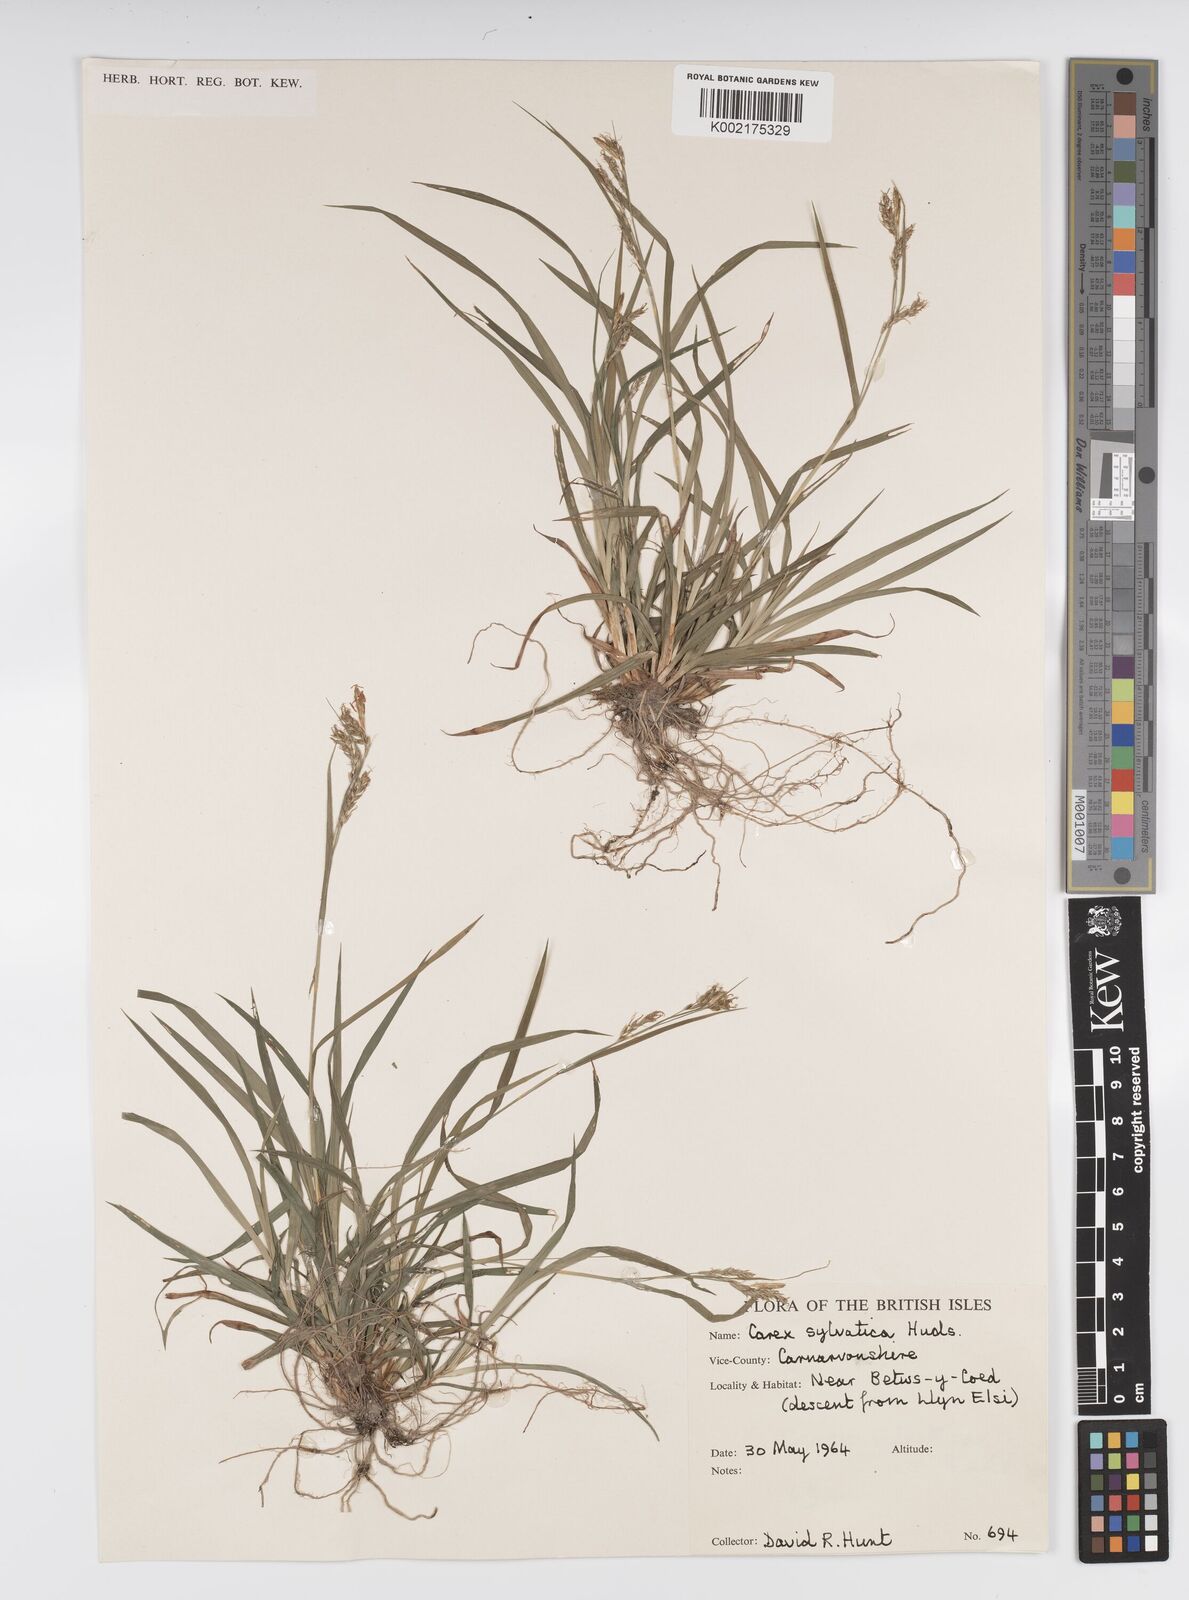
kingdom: Plantae
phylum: Tracheophyta
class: Liliopsida
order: Poales
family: Cyperaceae
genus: Carex
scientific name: Carex sylvatica
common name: Wood-sedge
